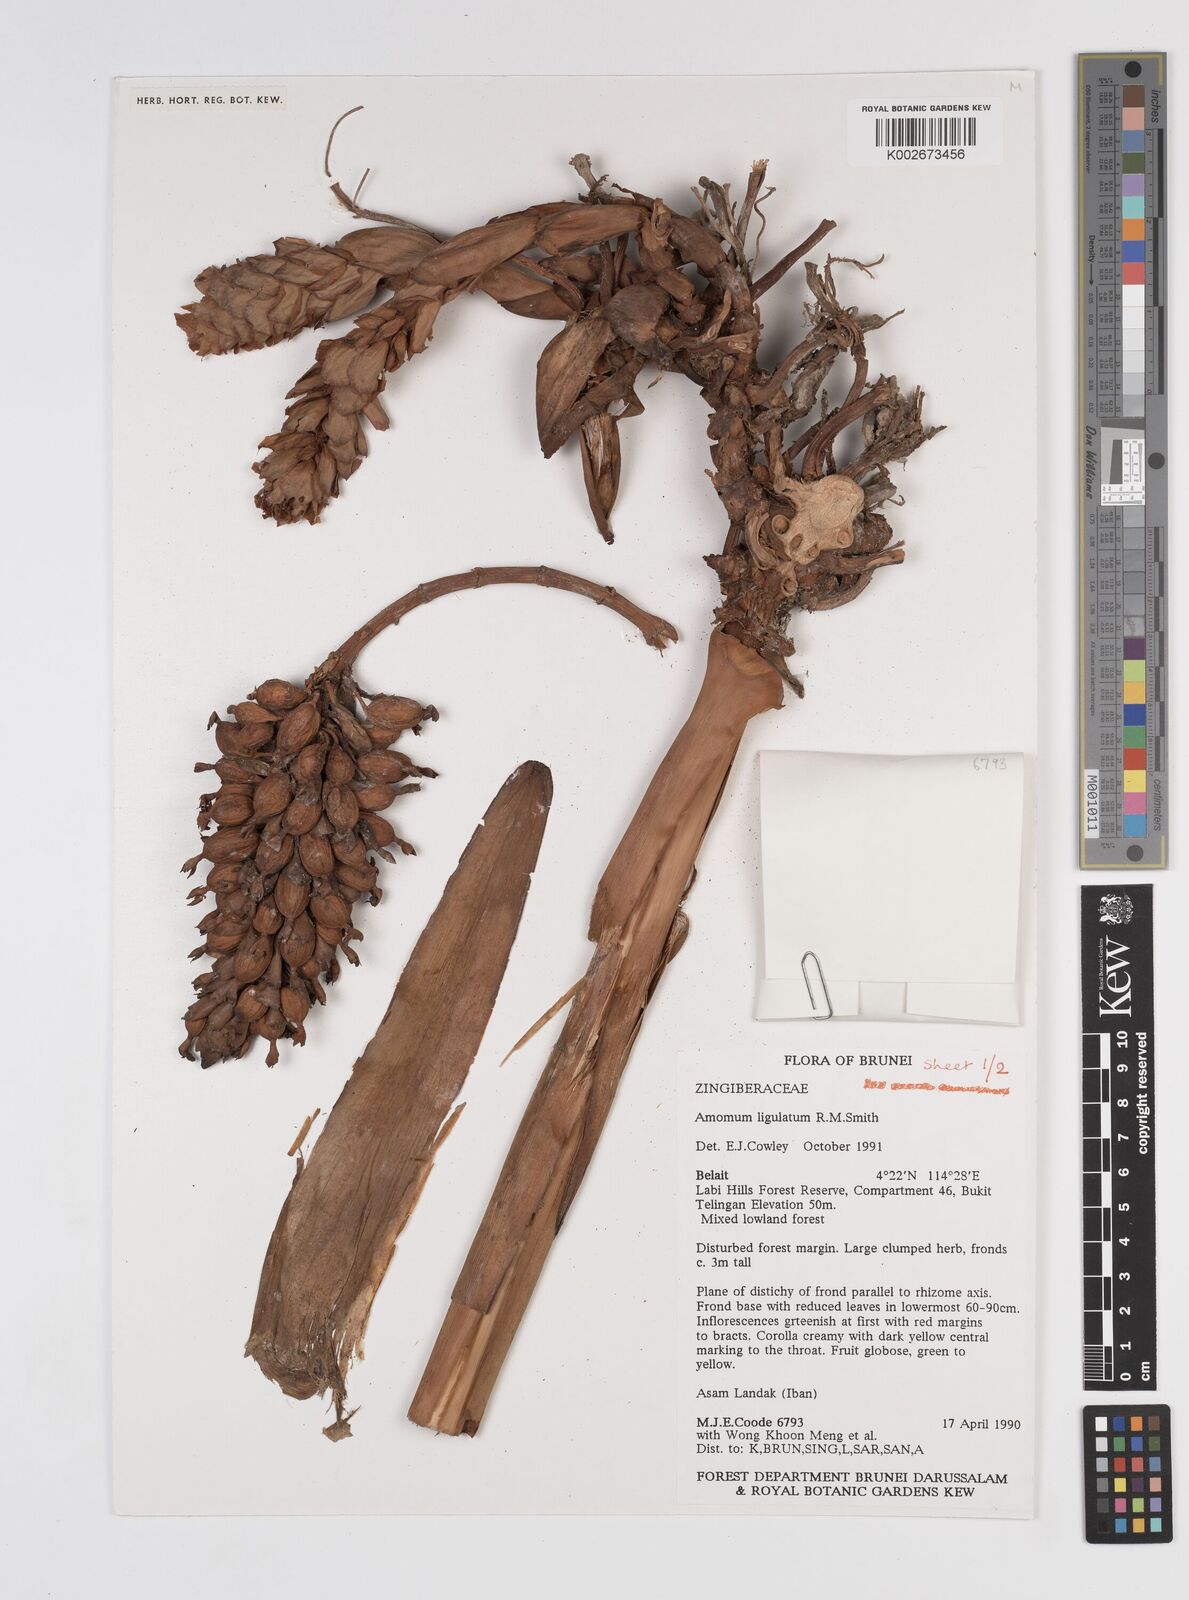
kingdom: Plantae
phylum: Tracheophyta
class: Liliopsida
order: Zingiberales
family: Zingiberaceae
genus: Sulettaria
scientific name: Sulettaria ligulata
